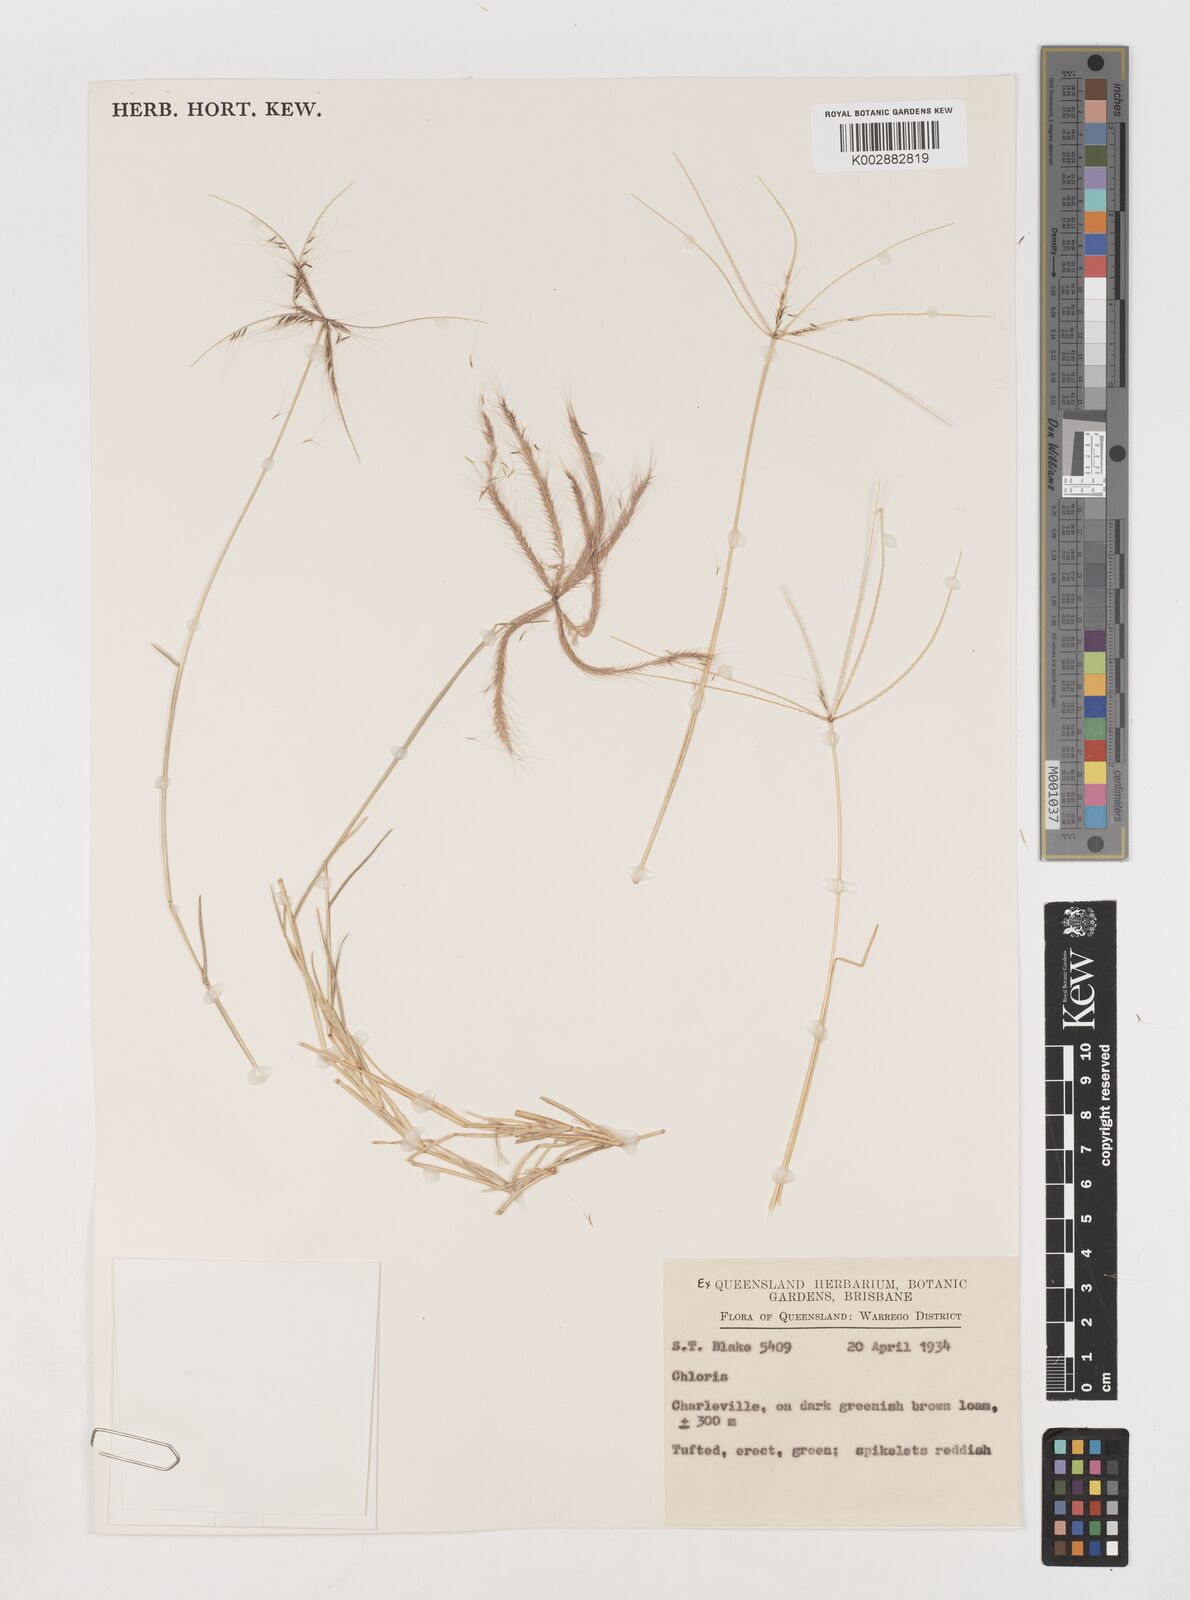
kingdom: Plantae
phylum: Tracheophyta
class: Liliopsida
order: Poales
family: Poaceae
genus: Chloris
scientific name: Chloris pectinata
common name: Comb windmill grass
